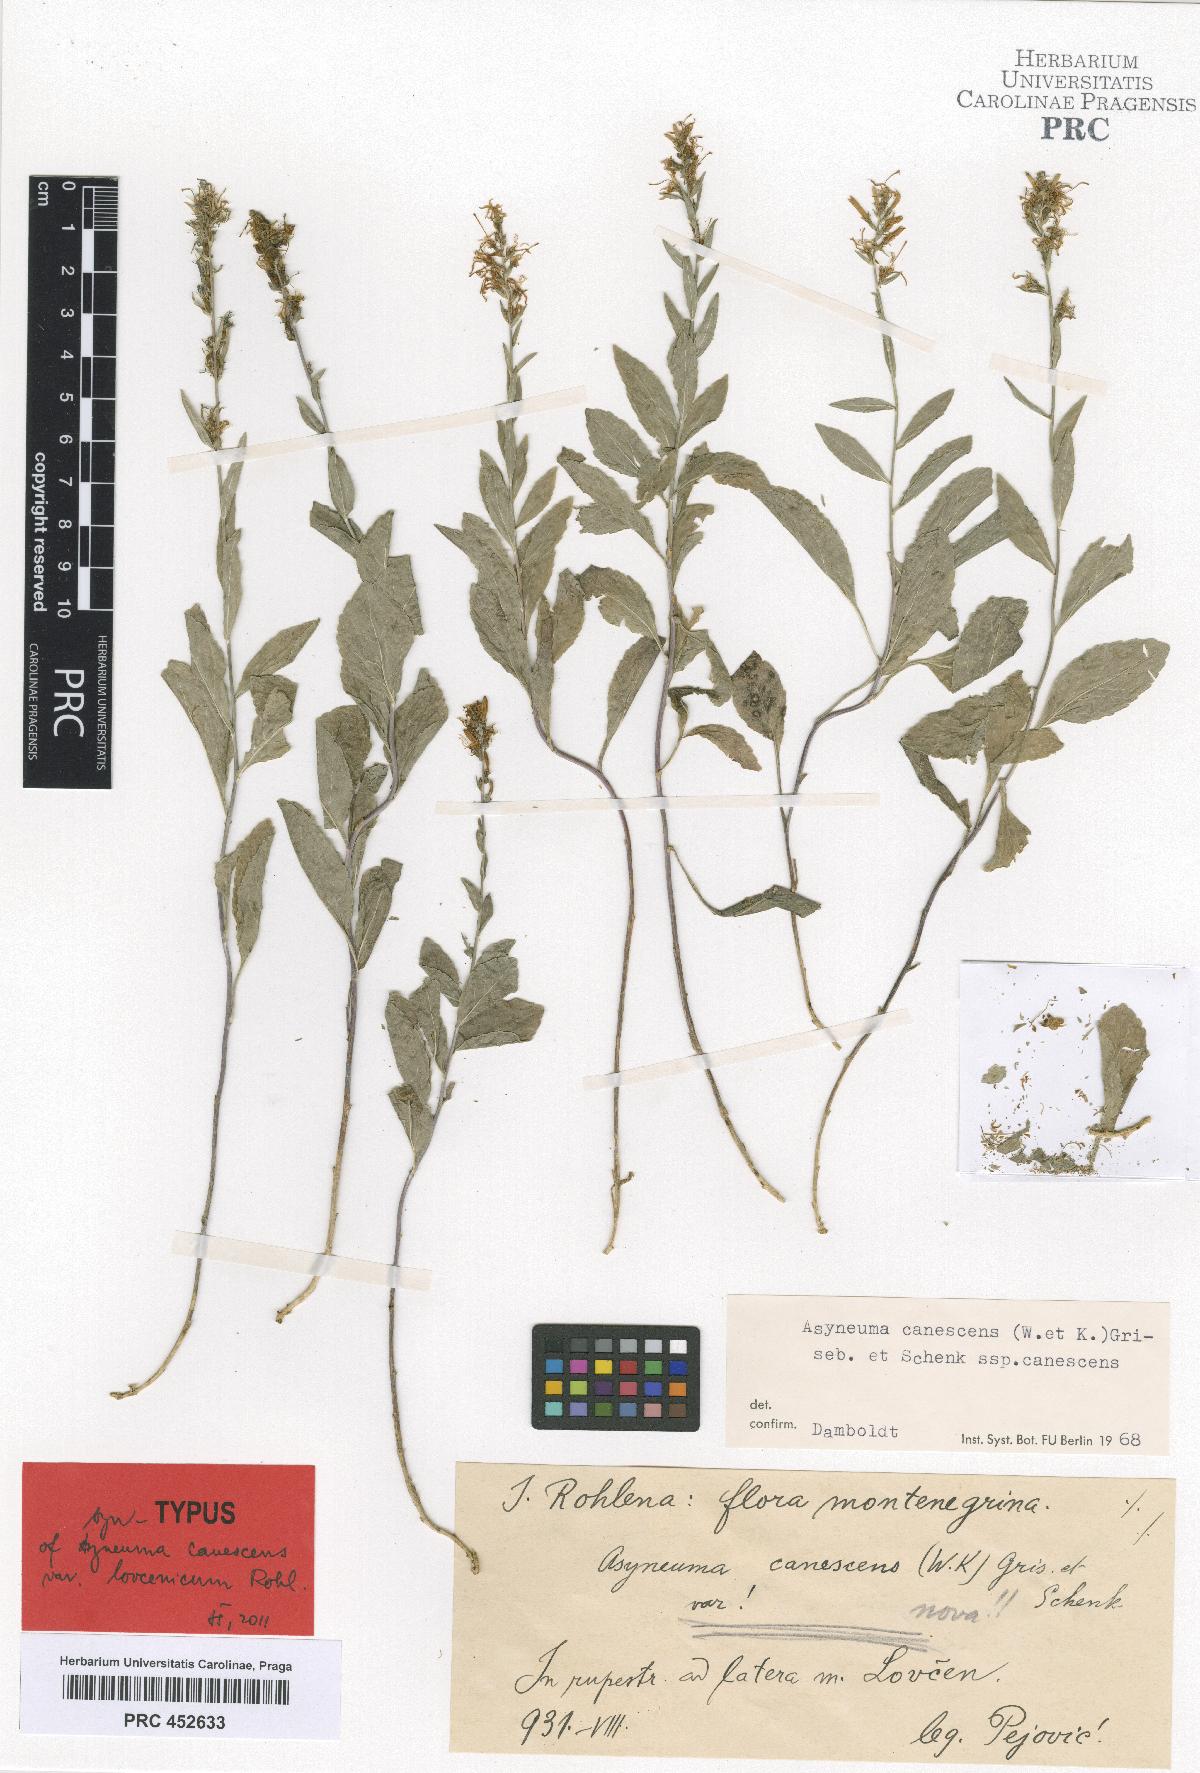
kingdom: Plantae
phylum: Tracheophyta
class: Magnoliopsida
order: Asterales
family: Campanulaceae
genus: Asyneuma
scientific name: Asyneuma canescens
